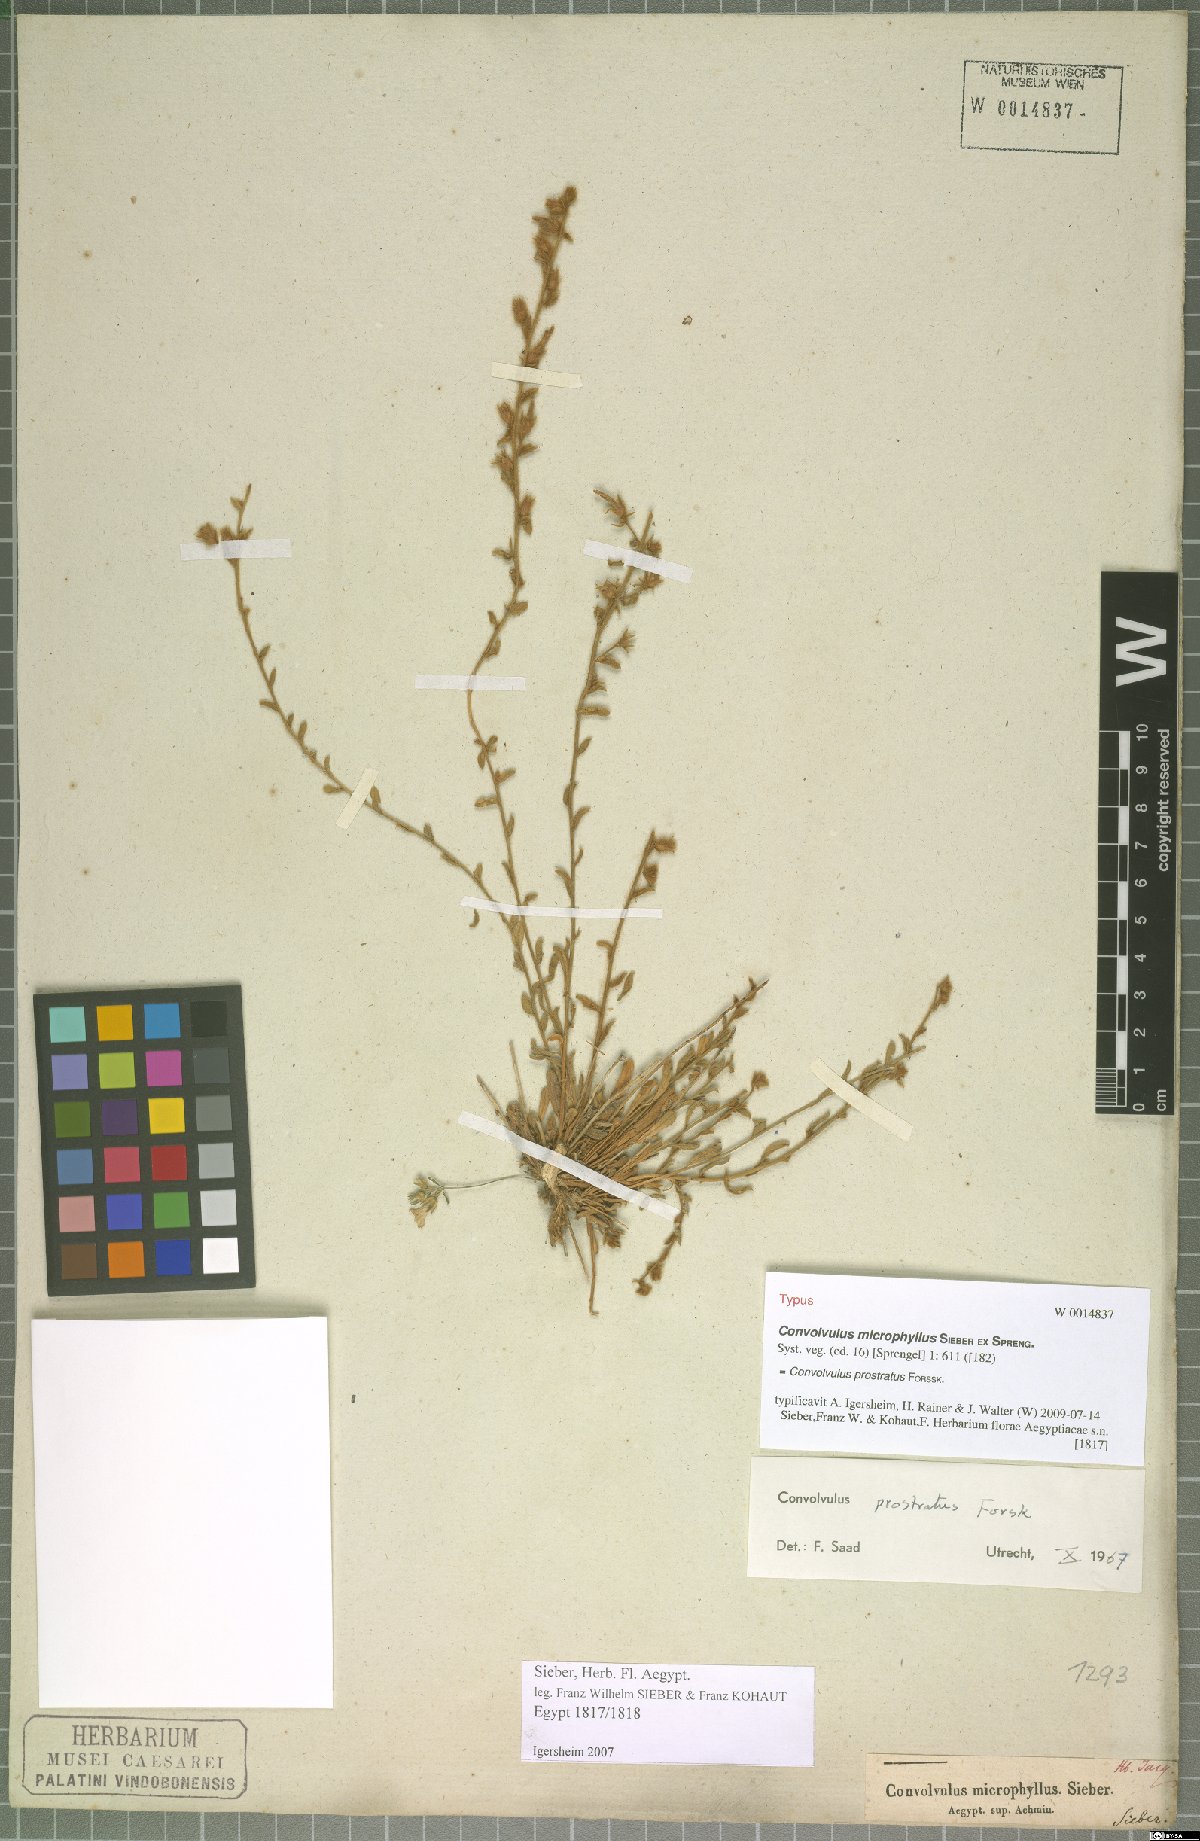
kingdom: Plantae
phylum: Tracheophyta
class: Magnoliopsida
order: Solanales
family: Convolvulaceae
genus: Convolvulus
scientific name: Convolvulus prostratus
